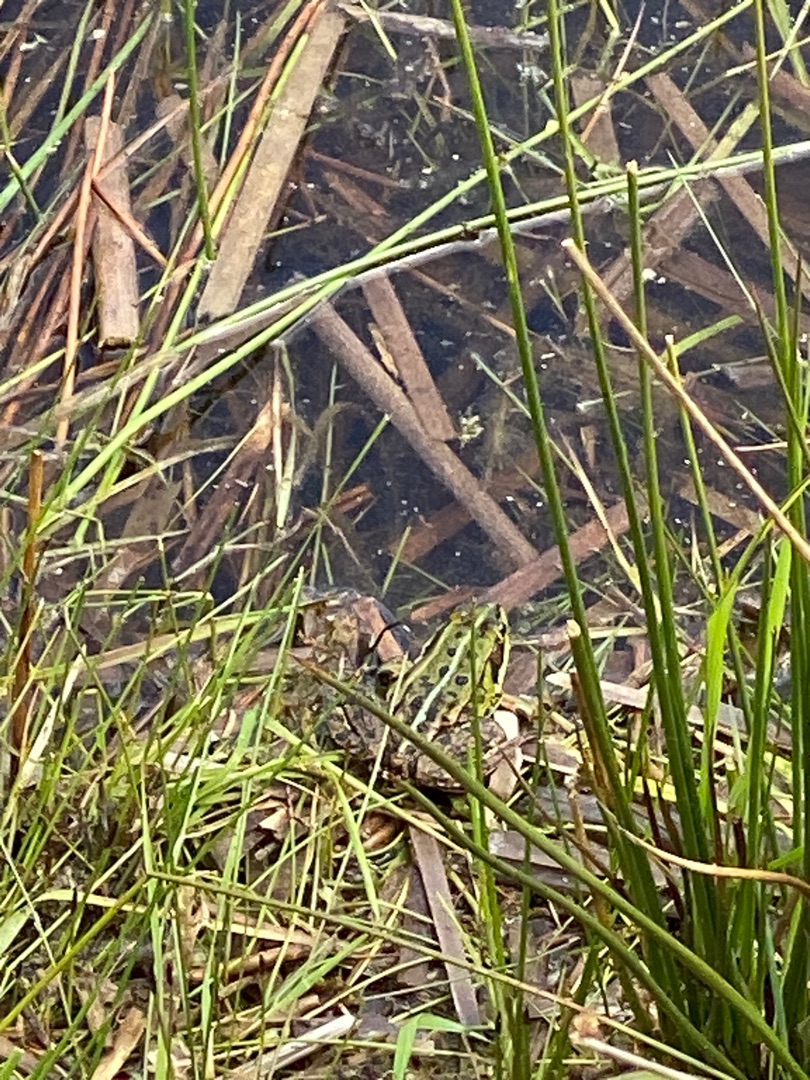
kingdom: Animalia
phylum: Chordata
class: Amphibia
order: Anura
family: Ranidae
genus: Pelophylax
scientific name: Pelophylax lessonae
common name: Grøn frø
